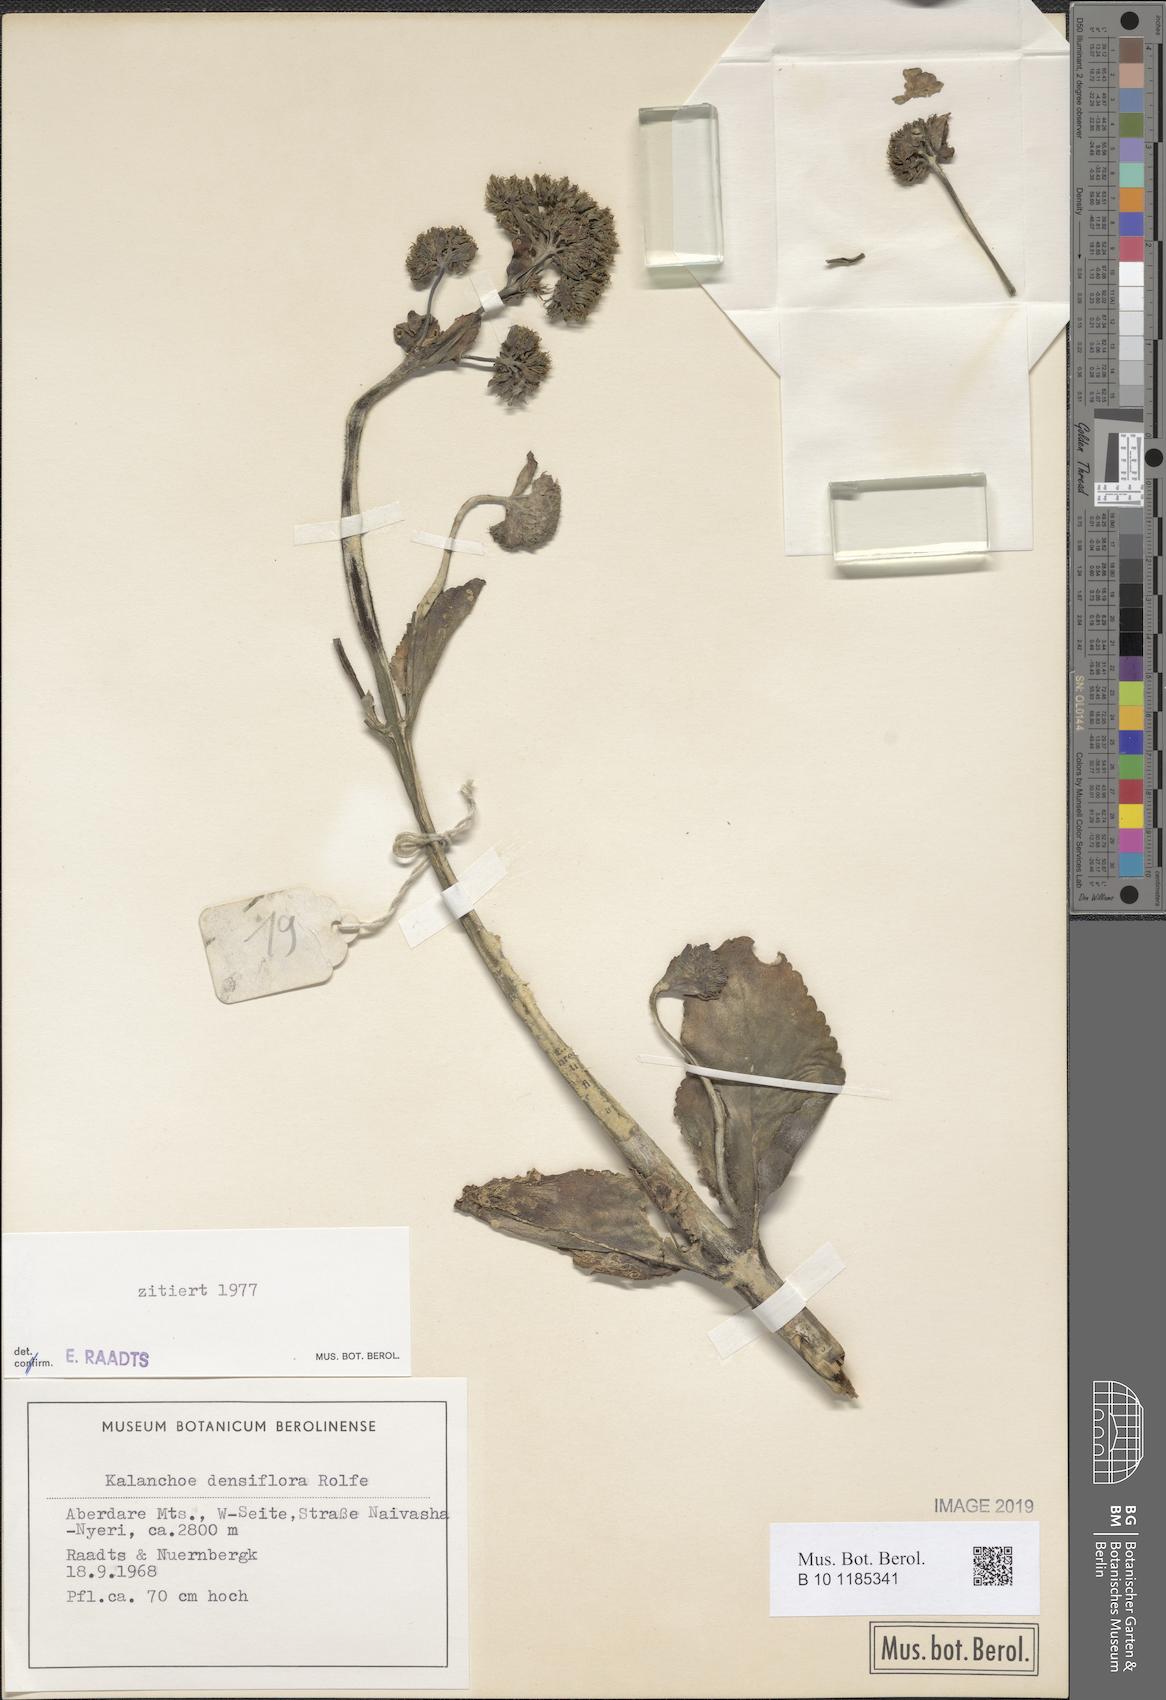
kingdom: Plantae
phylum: Tracheophyta
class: Magnoliopsida
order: Saxifragales
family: Crassulaceae
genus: Kalanchoe
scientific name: Kalanchoe densiflora
